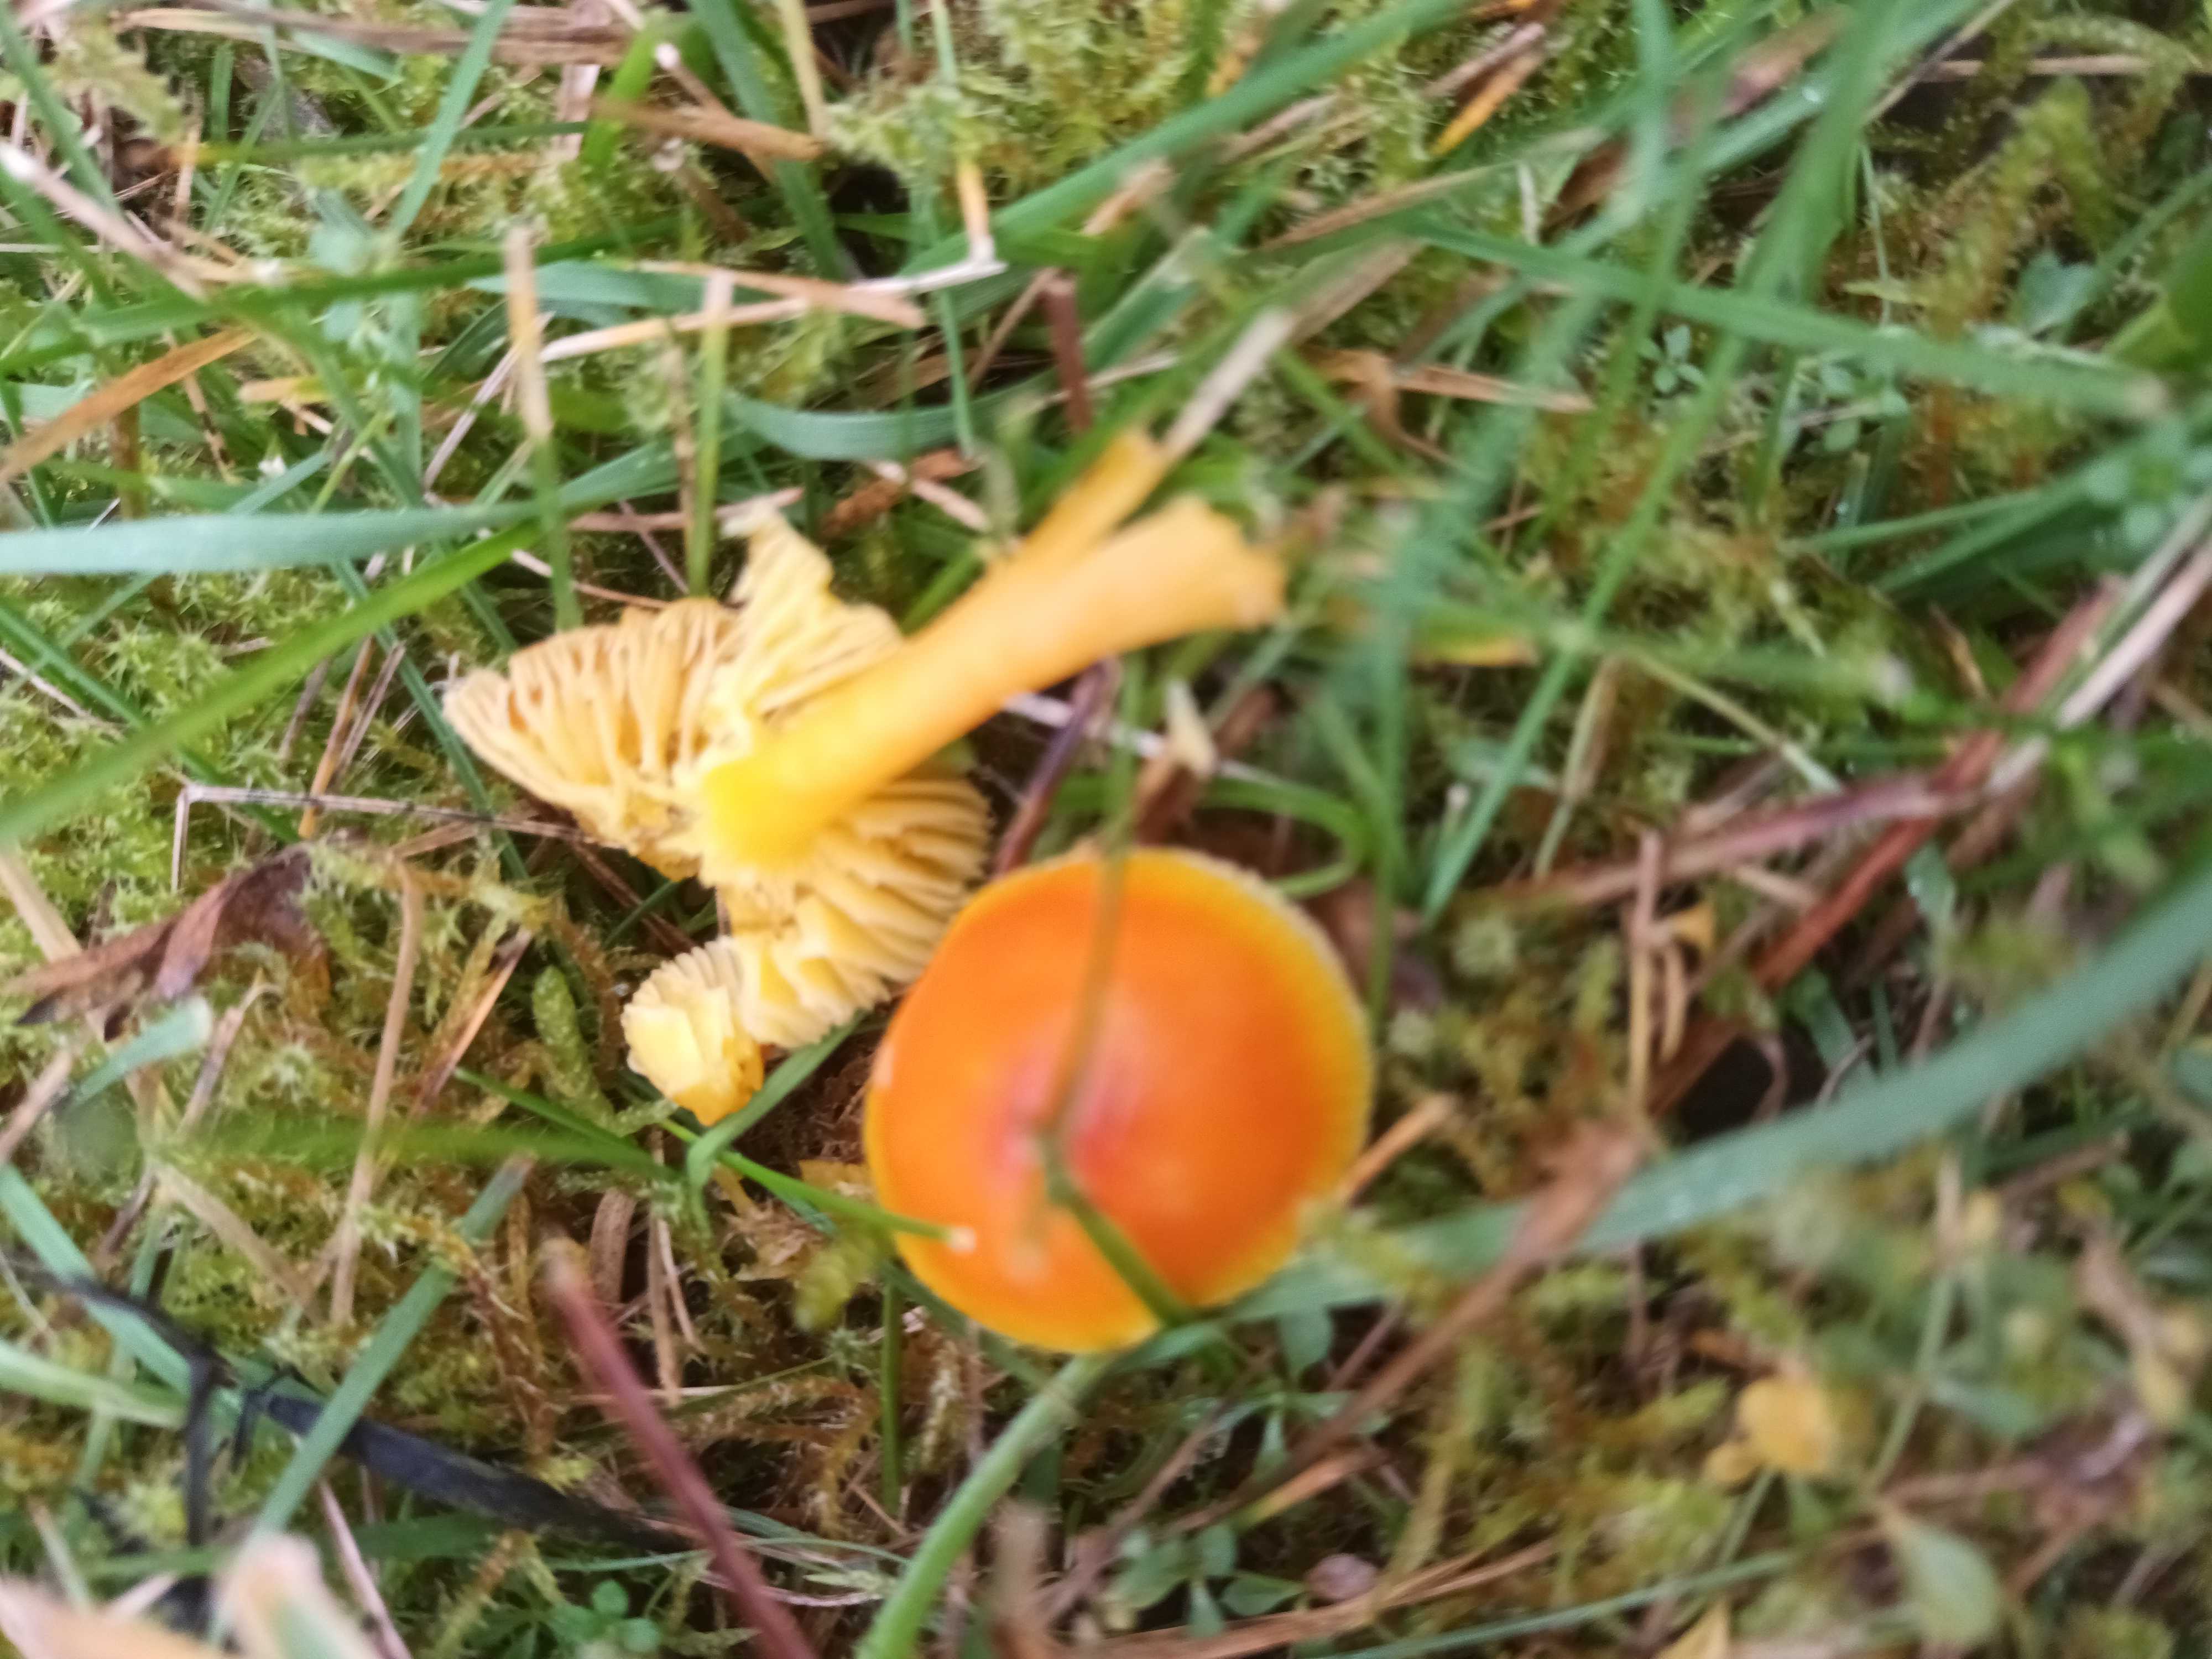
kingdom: Fungi
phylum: Basidiomycota
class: Agaricomycetes
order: Agaricales
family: Hygrophoraceae
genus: Hygrocybe
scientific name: Hygrocybe
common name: vokshat
